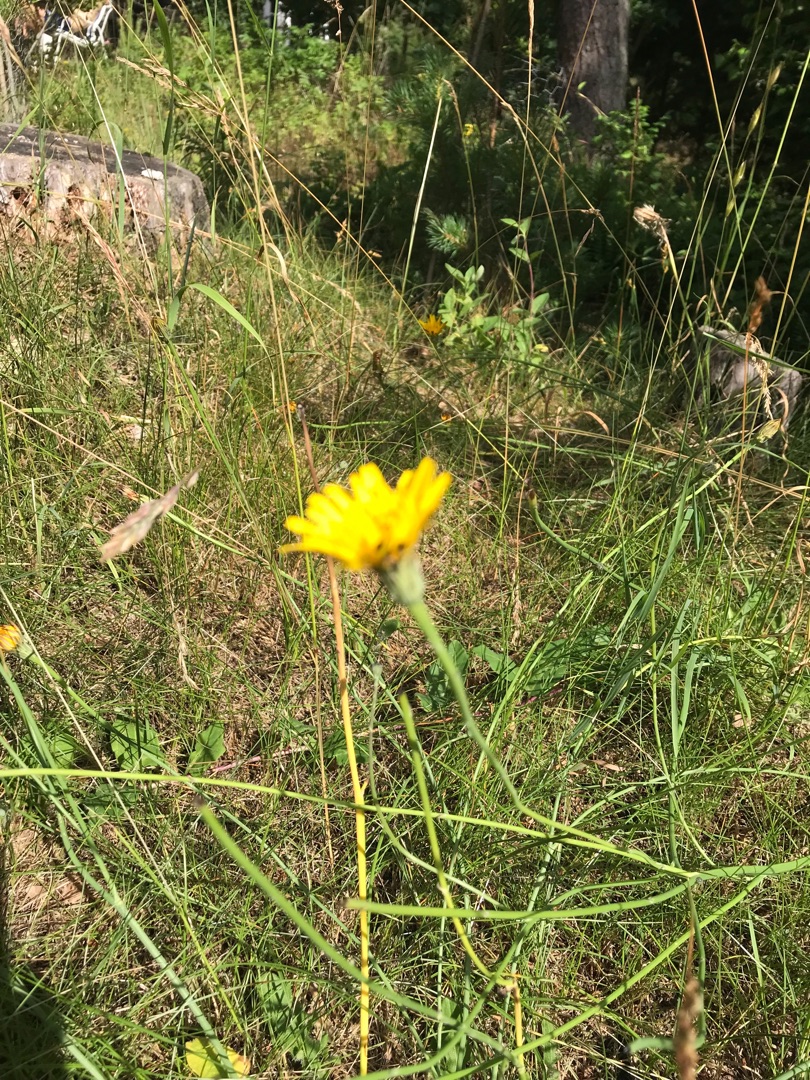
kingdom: Plantae
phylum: Tracheophyta
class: Magnoliopsida
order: Asterales
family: Asteraceae
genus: Hypochaeris
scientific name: Hypochaeris radicata
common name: Almindelig kongepen
